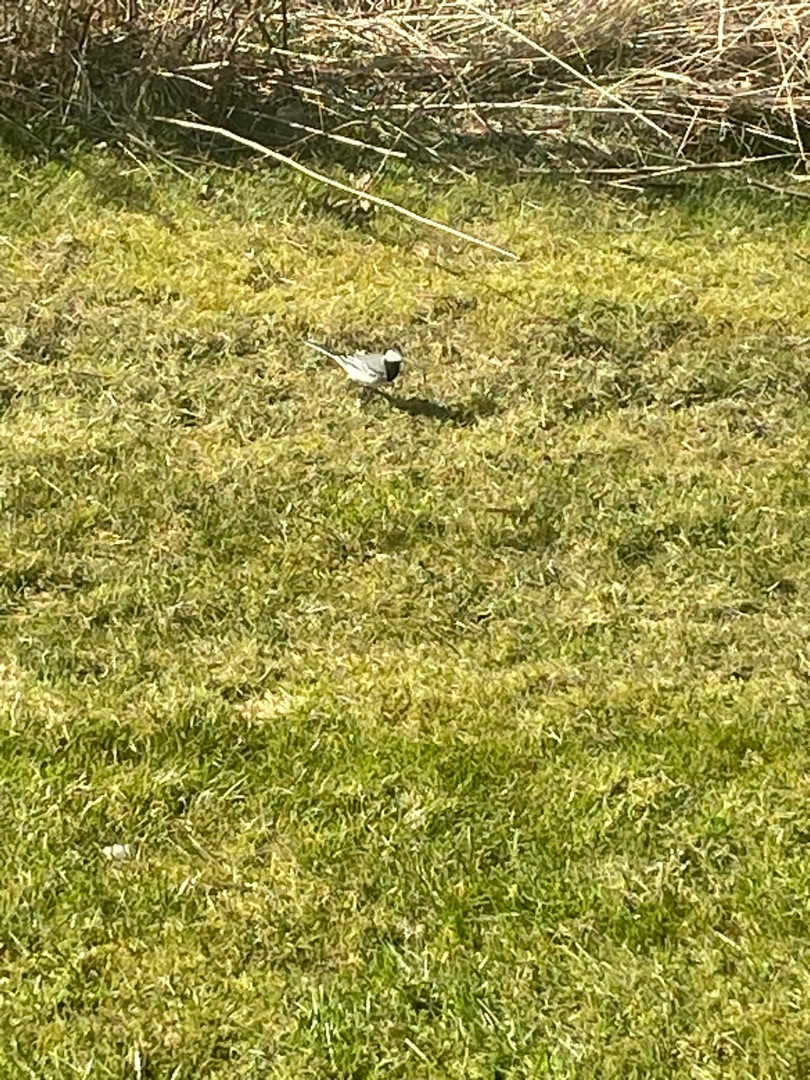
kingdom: Animalia
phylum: Chordata
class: Aves
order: Passeriformes
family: Motacillidae
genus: Motacilla
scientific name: Motacilla alba
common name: Hvid vipstjert
